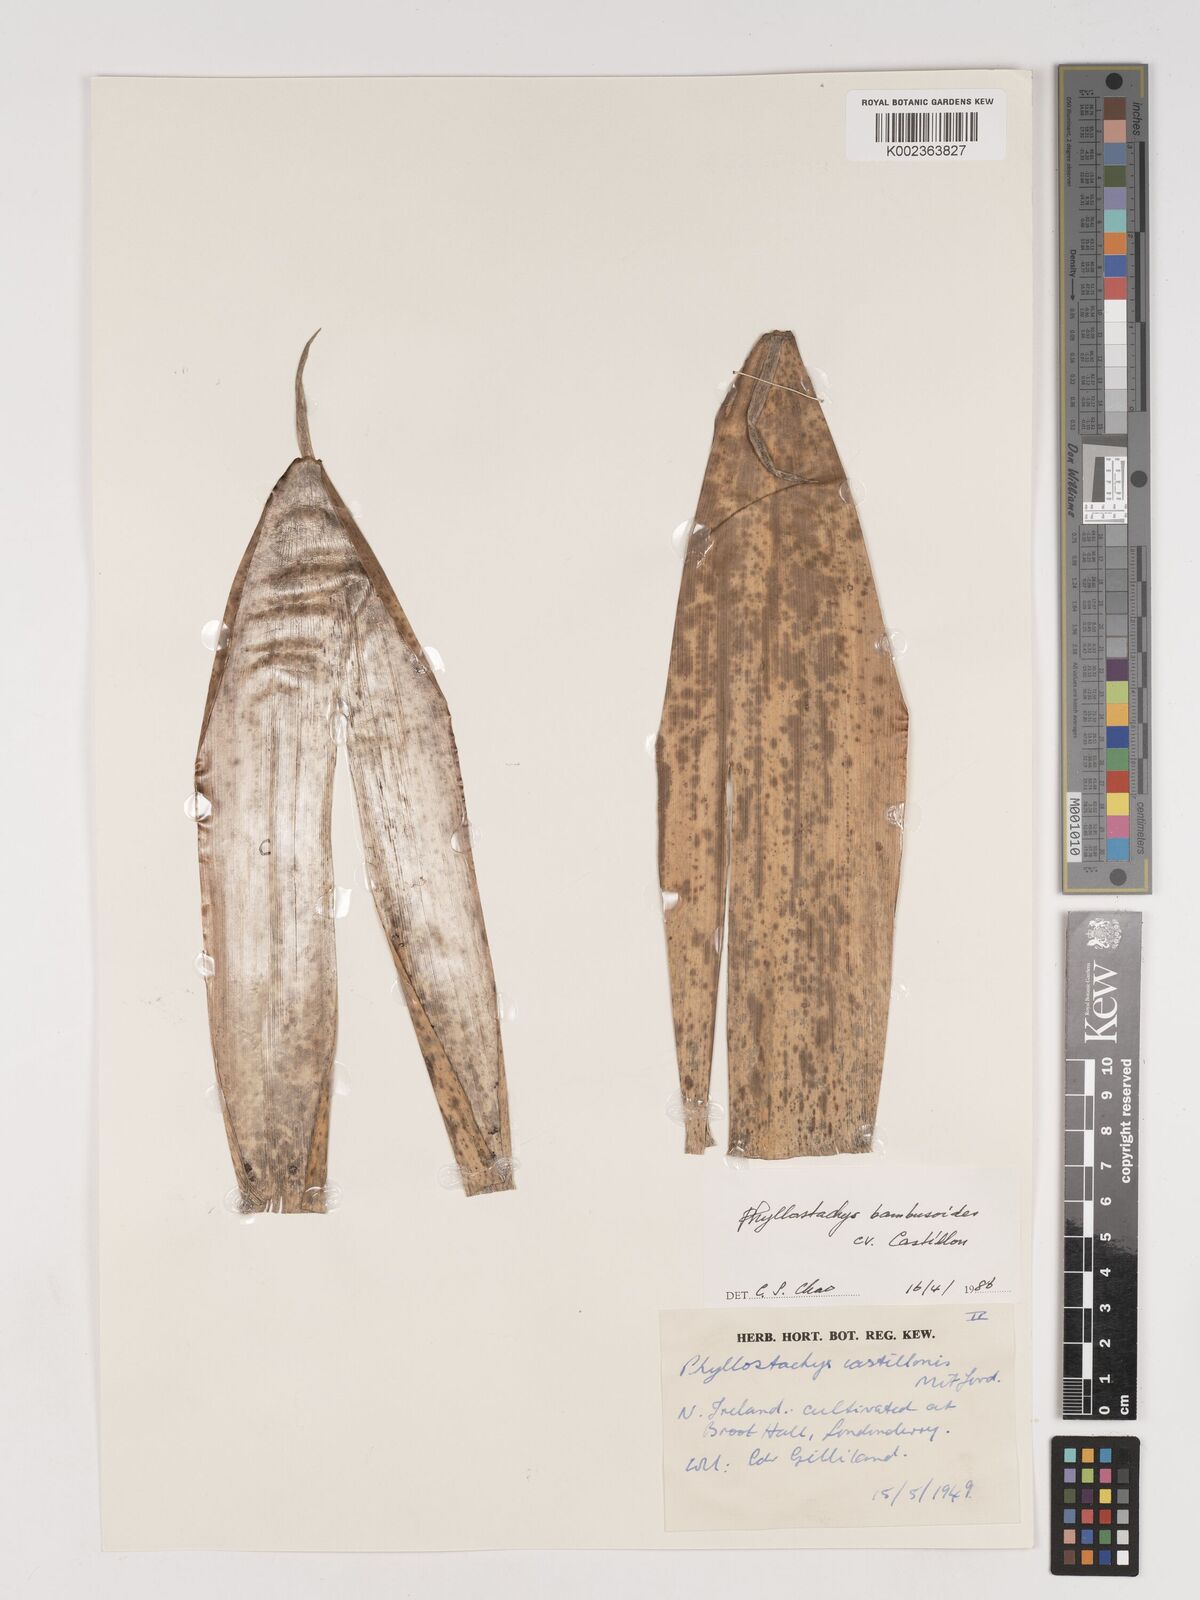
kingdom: Plantae
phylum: Tracheophyta
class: Liliopsida
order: Poales
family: Poaceae
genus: Phyllostachys
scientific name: Phyllostachys reticulata
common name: Bamboo
